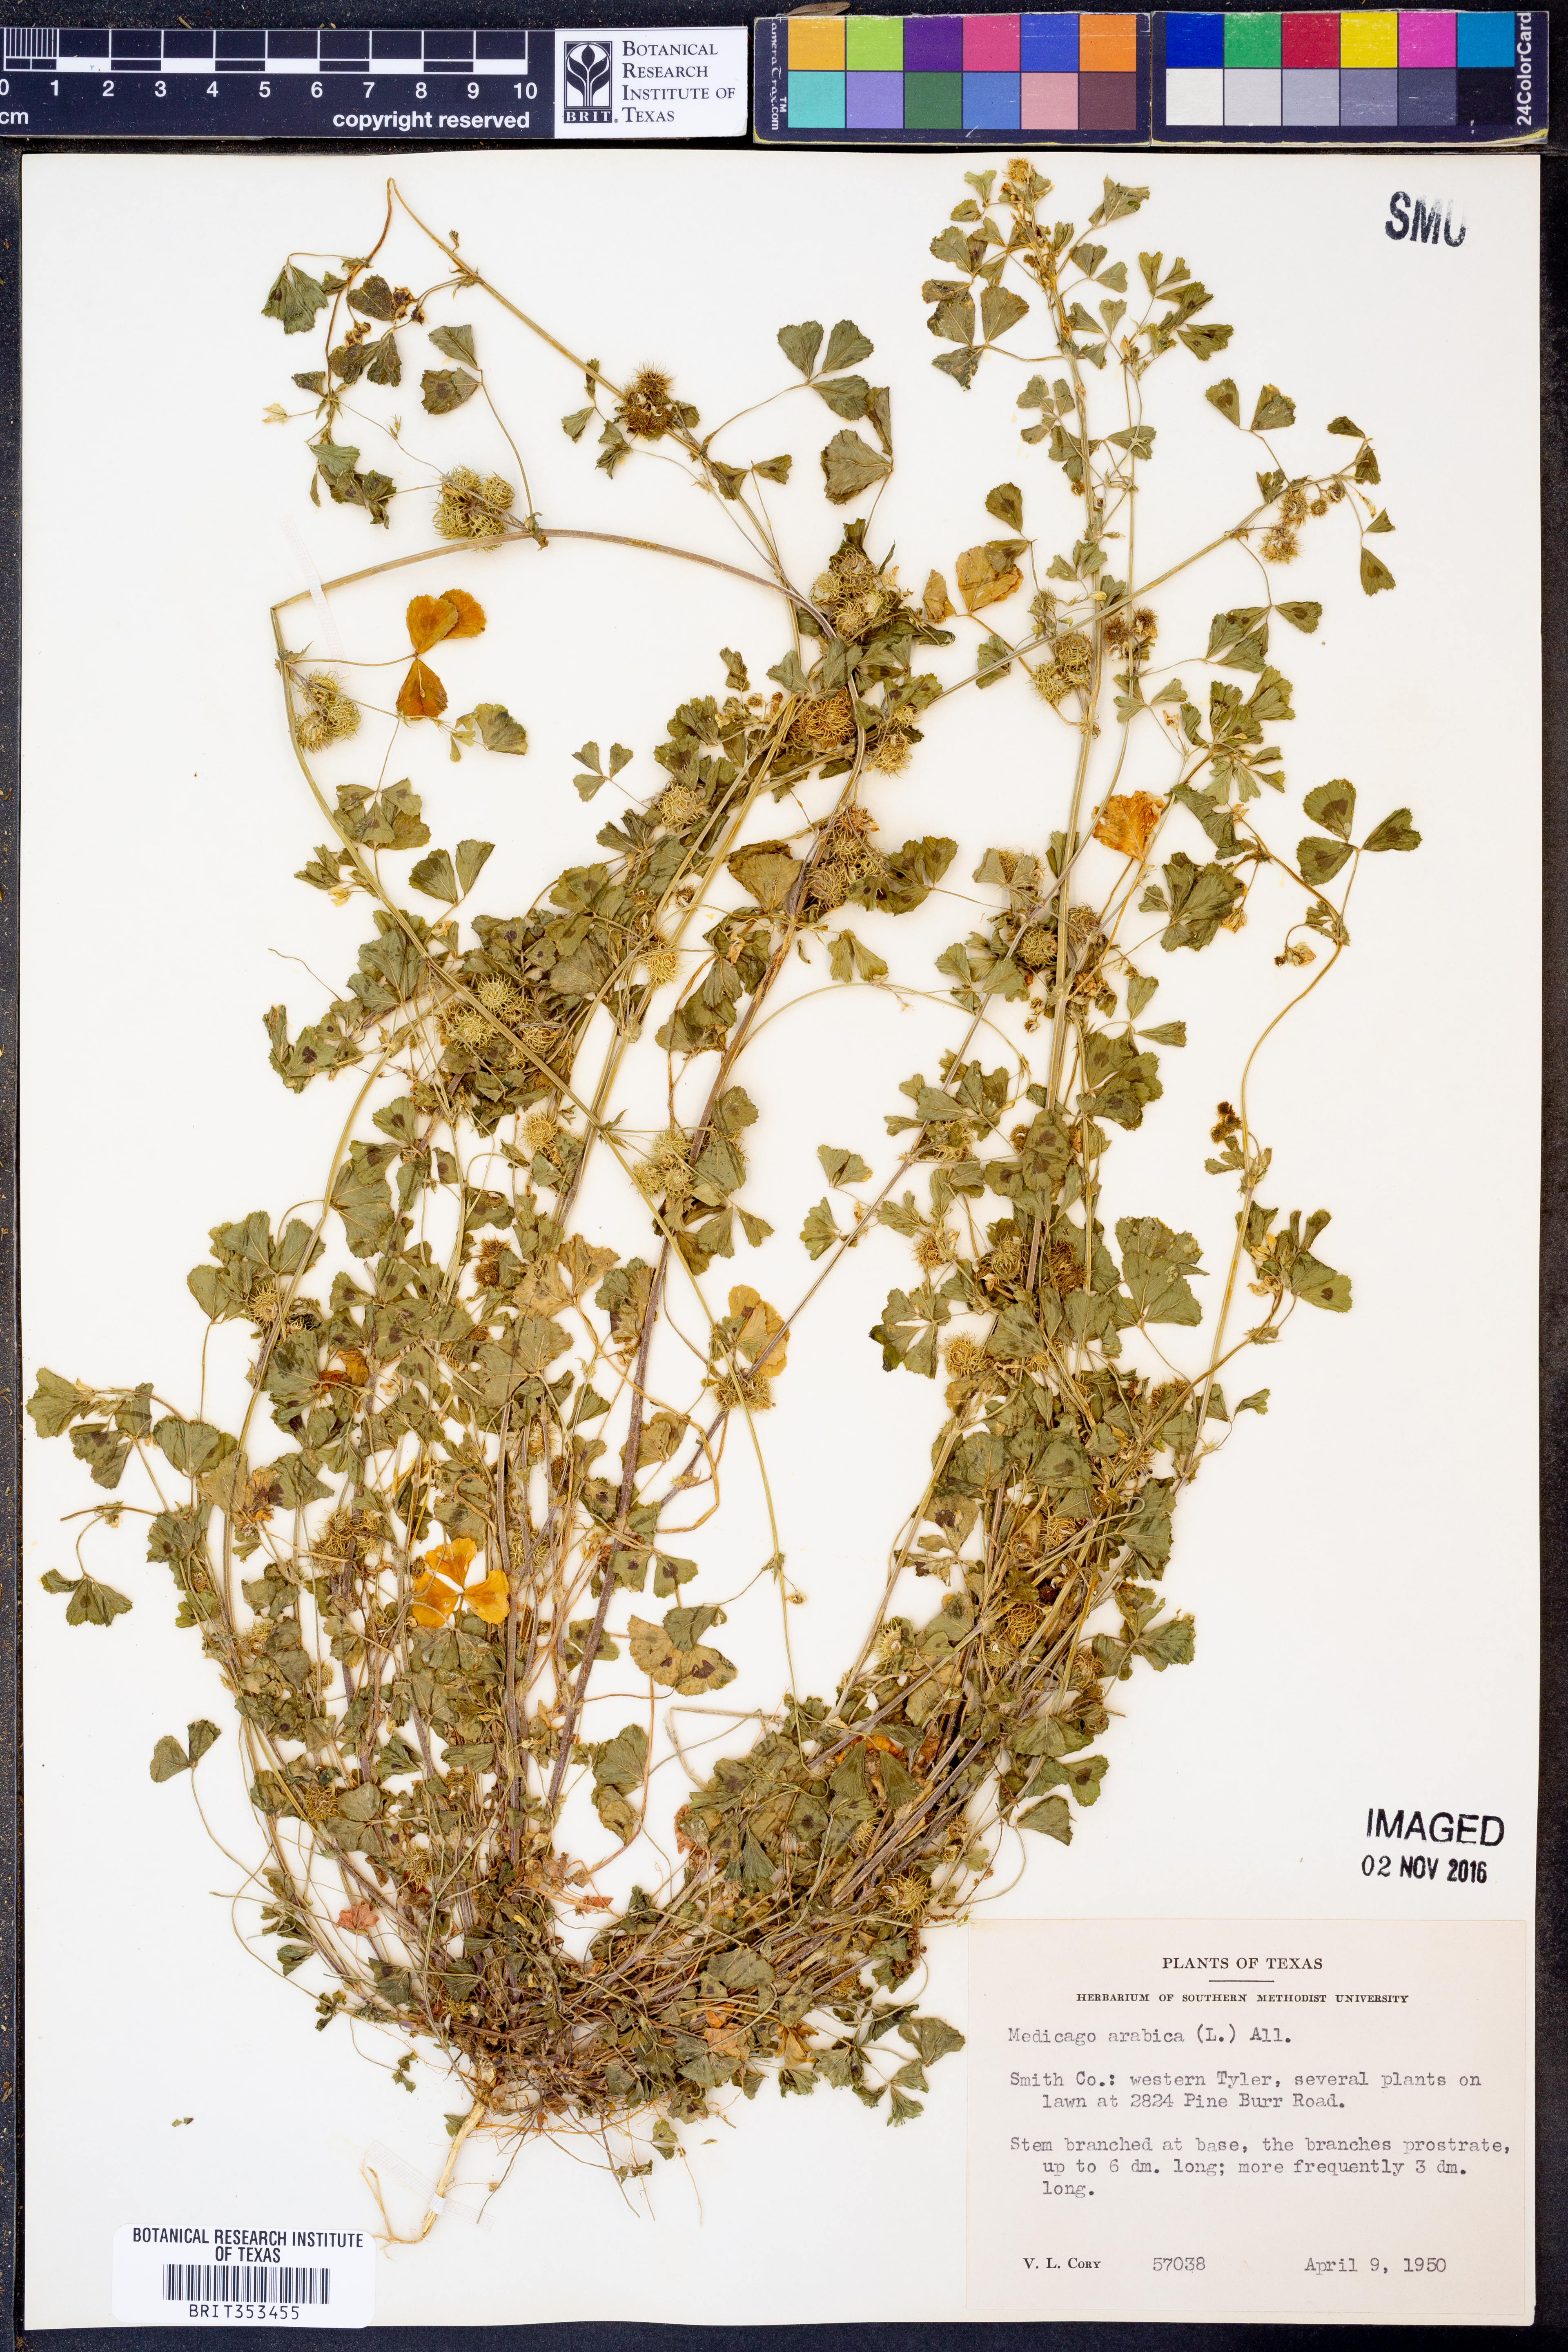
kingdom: Plantae
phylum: Tracheophyta
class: Magnoliopsida
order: Fabales
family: Fabaceae
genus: Medicago
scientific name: Medicago arabica
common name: Spotted medick
